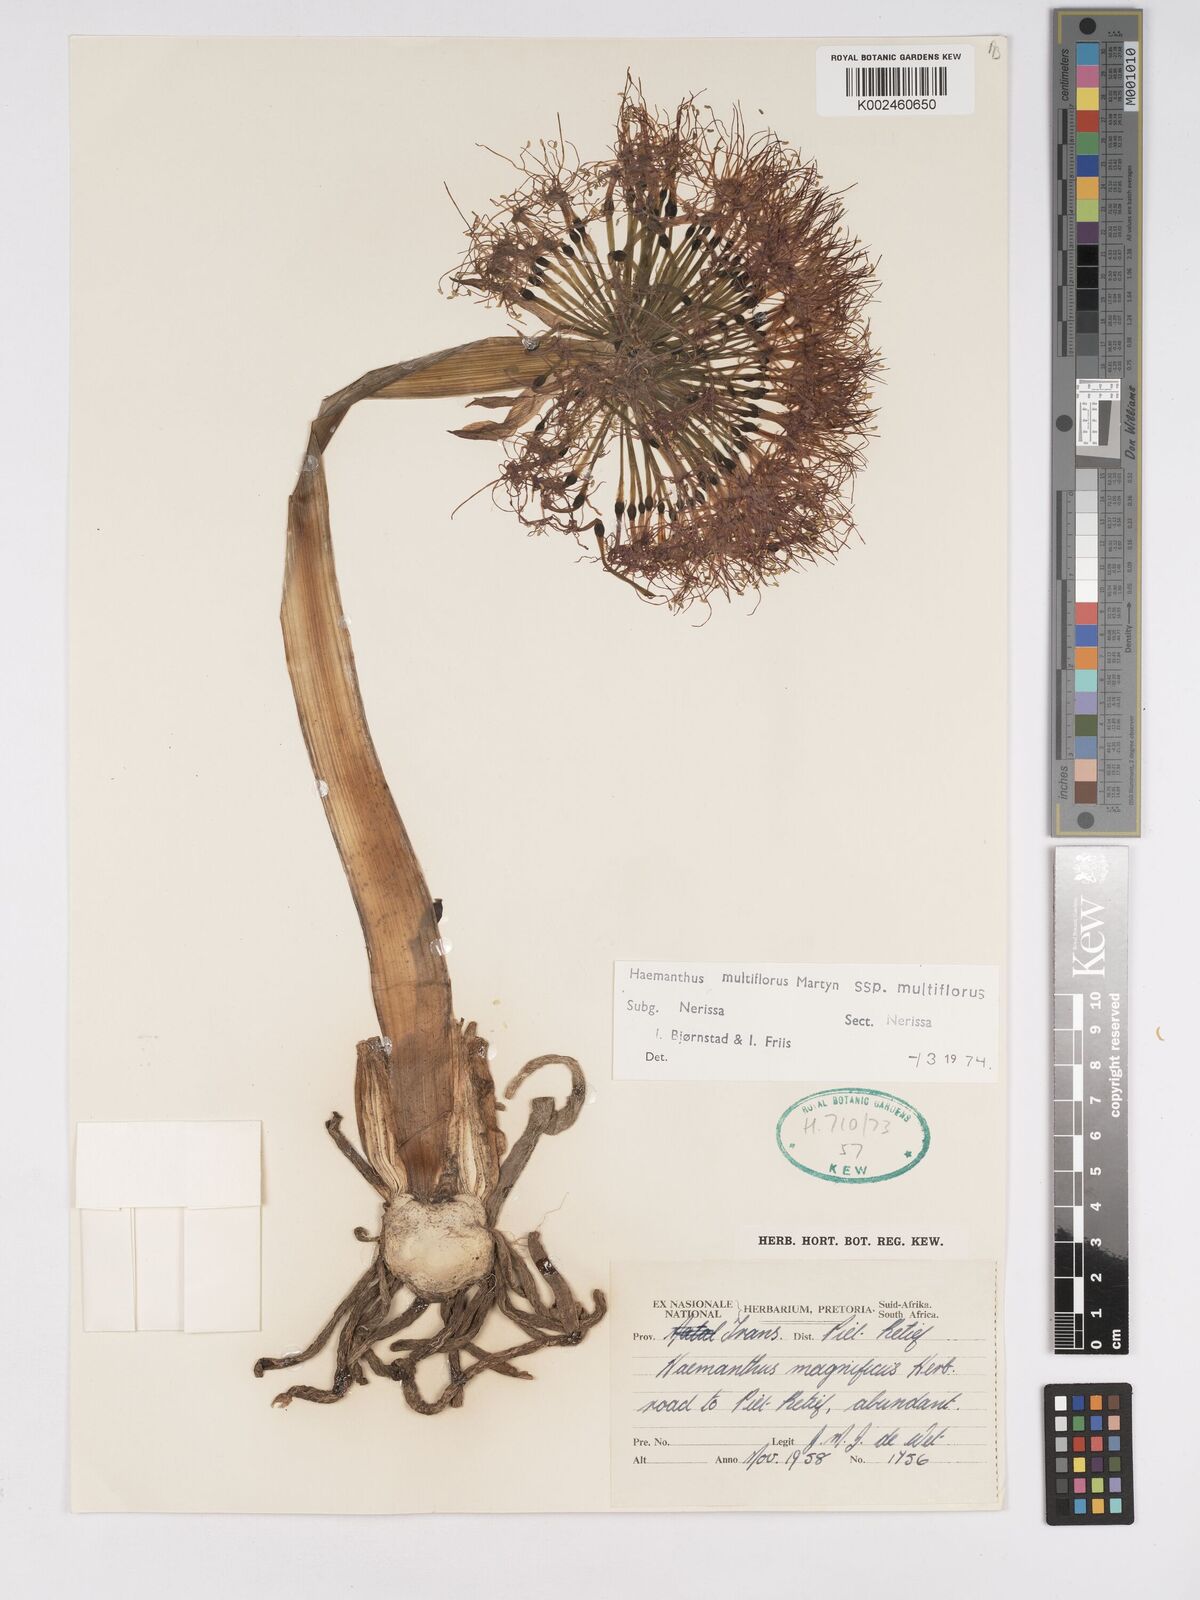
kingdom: Plantae
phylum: Tracheophyta
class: Liliopsida
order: Asparagales
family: Amaryllidaceae
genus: Scadoxus
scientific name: Scadoxus multiflorus
